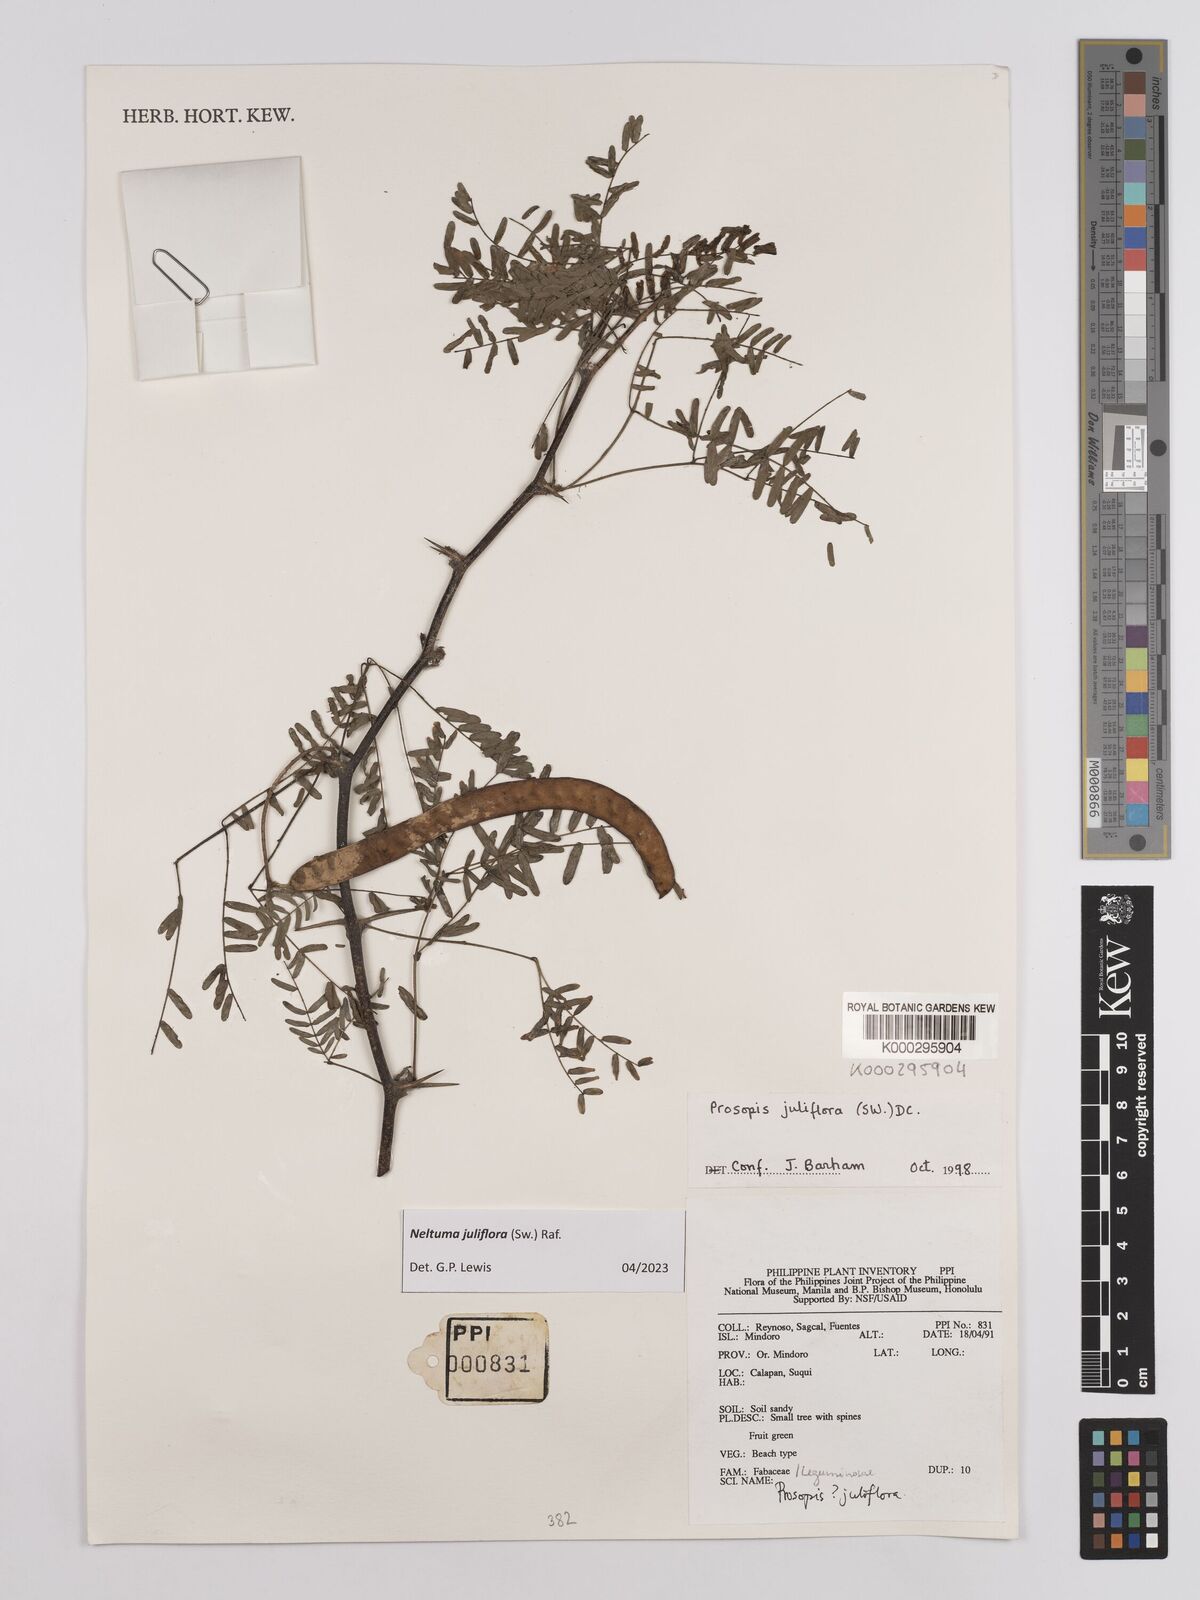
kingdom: Plantae
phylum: Tracheophyta
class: Magnoliopsida
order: Fabales
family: Fabaceae
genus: Prosopis
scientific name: Prosopis juliflora
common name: Mesquite
